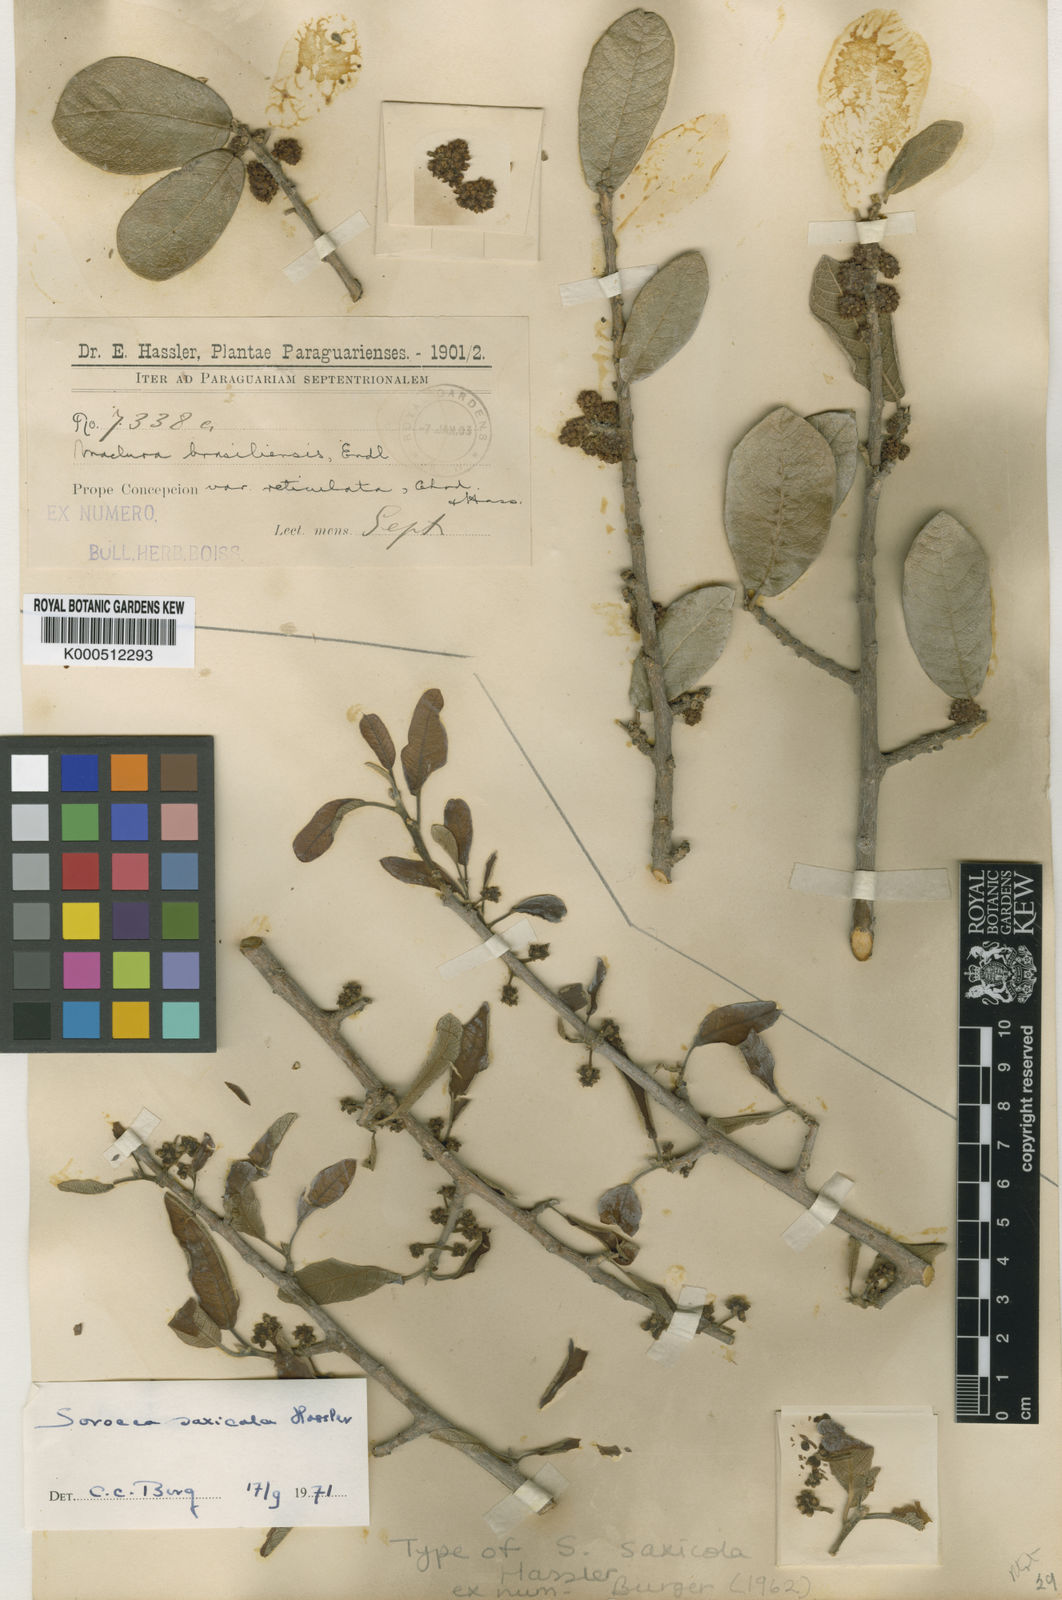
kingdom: Plantae
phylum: Tracheophyta
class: Magnoliopsida
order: Rosales
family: Moraceae
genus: Sorocea
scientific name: Sorocea sprucei
